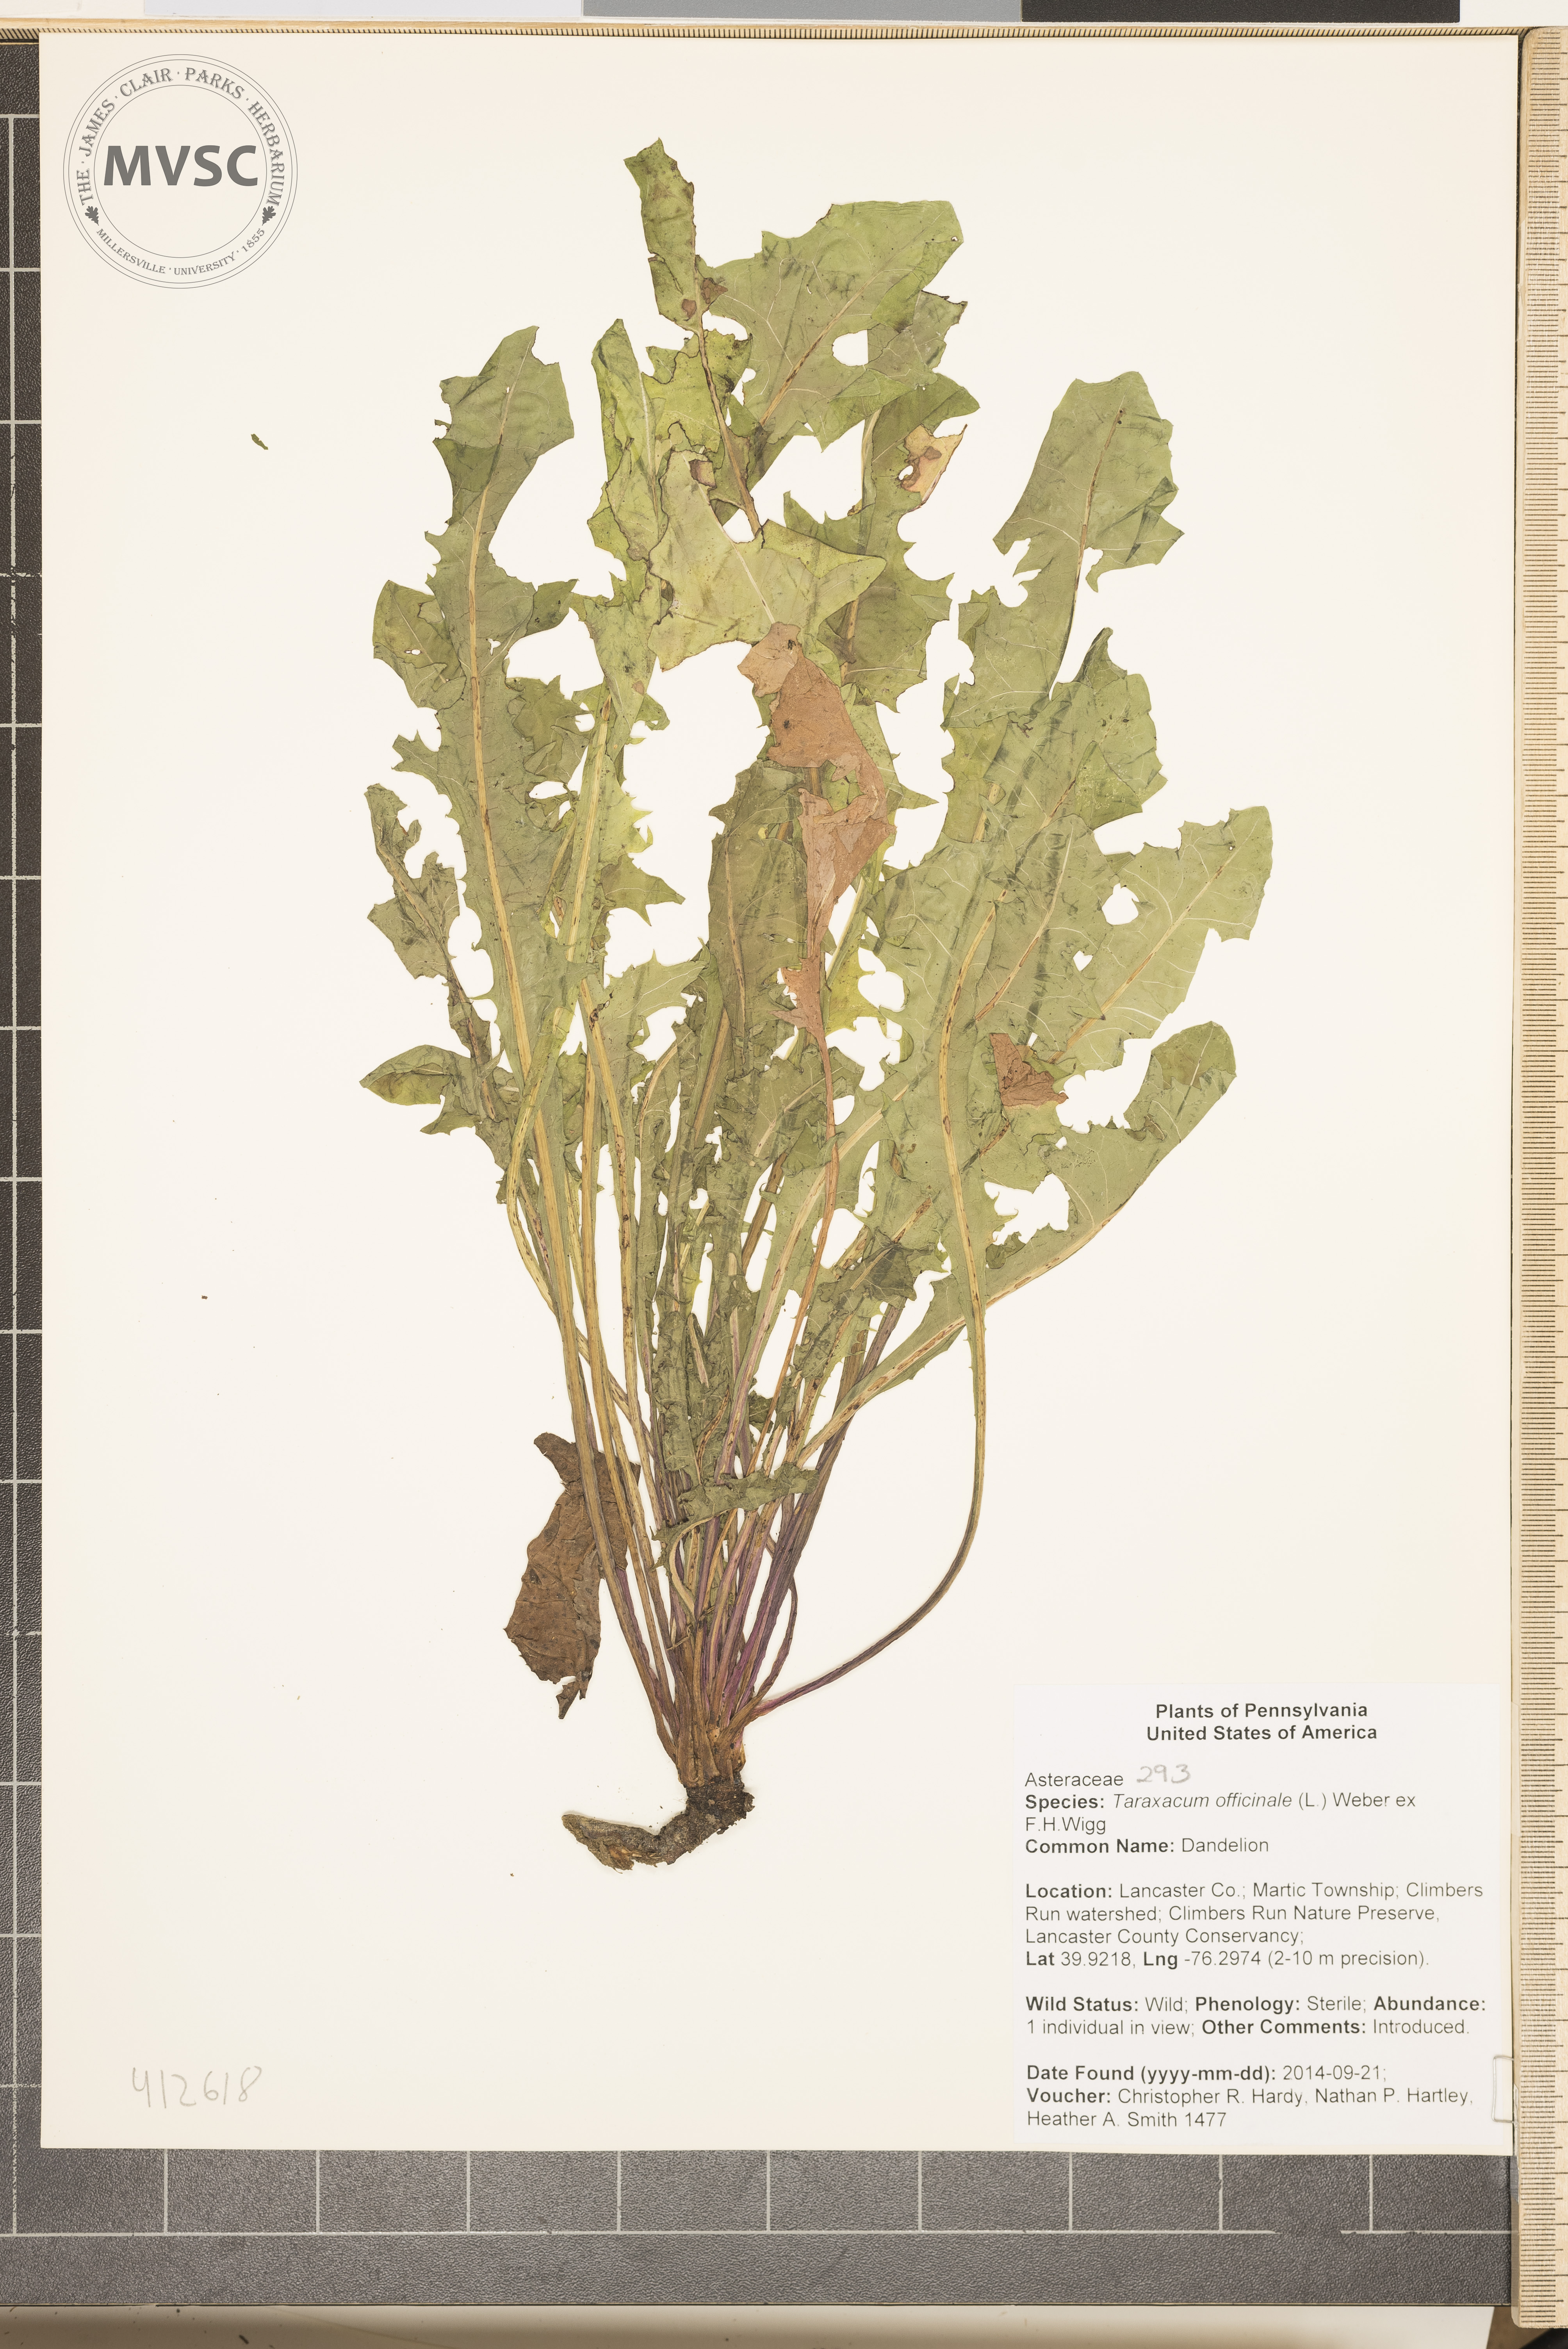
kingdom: Plantae
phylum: Tracheophyta
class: Magnoliopsida
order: Asterales
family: Asteraceae
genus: Taraxacum
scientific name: Taraxacum officinale
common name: common dandelion
